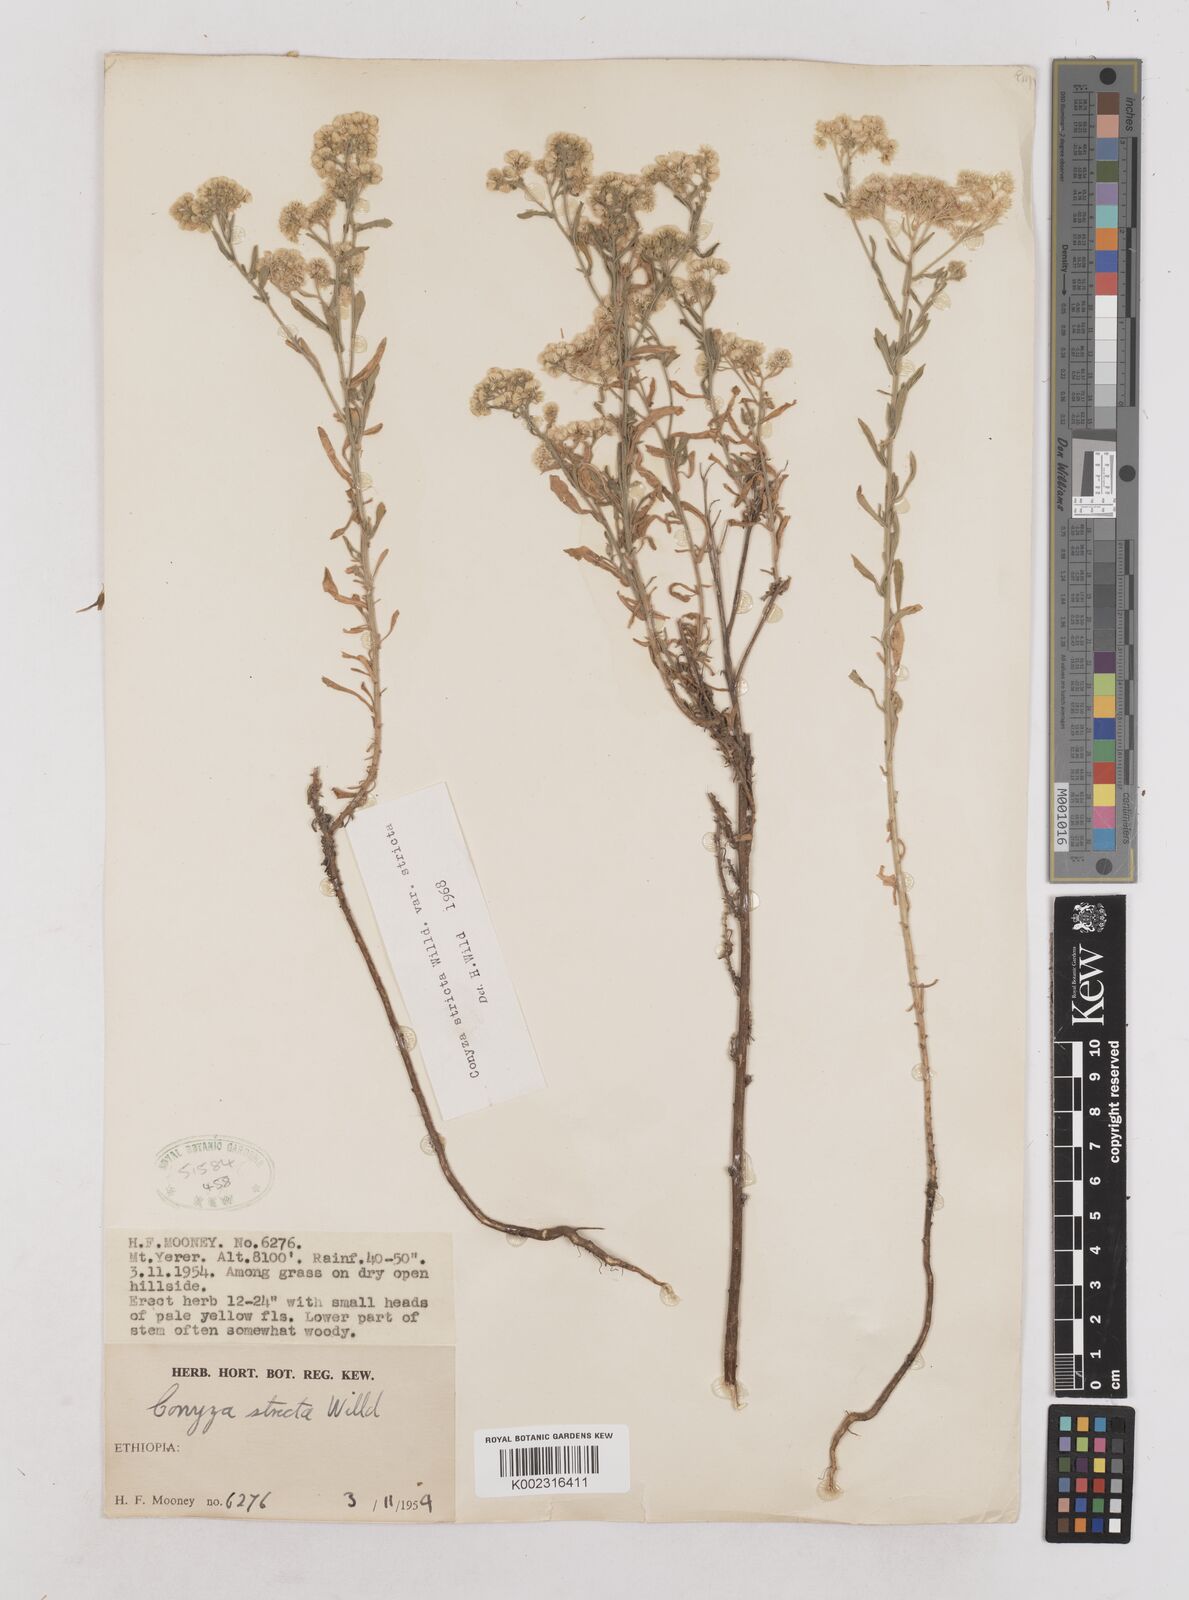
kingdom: Plantae
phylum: Tracheophyta
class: Magnoliopsida
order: Asterales
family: Asteraceae
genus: Nidorella
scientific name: Nidorella triloba
